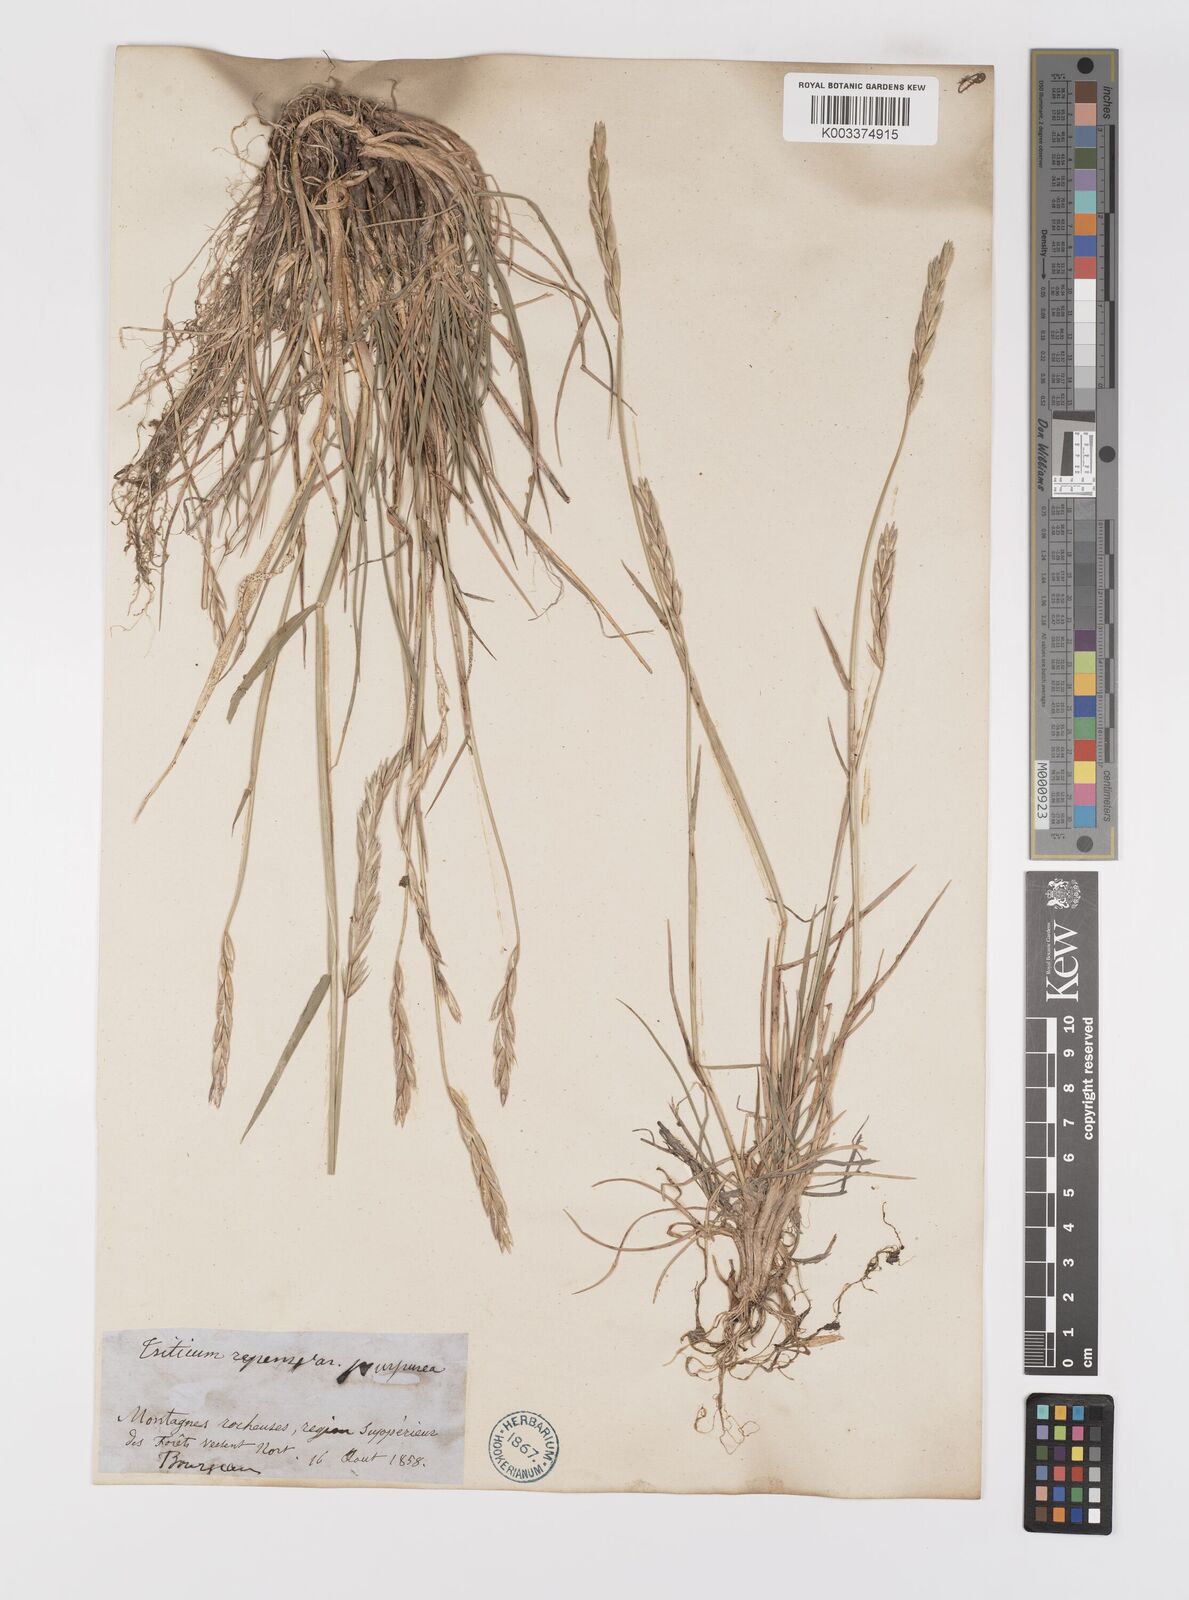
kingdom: Plantae
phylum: Tracheophyta
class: Liliopsida
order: Poales
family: Poaceae
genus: Elymus
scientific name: Elymus violaceus
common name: Arctic wheatgrass
